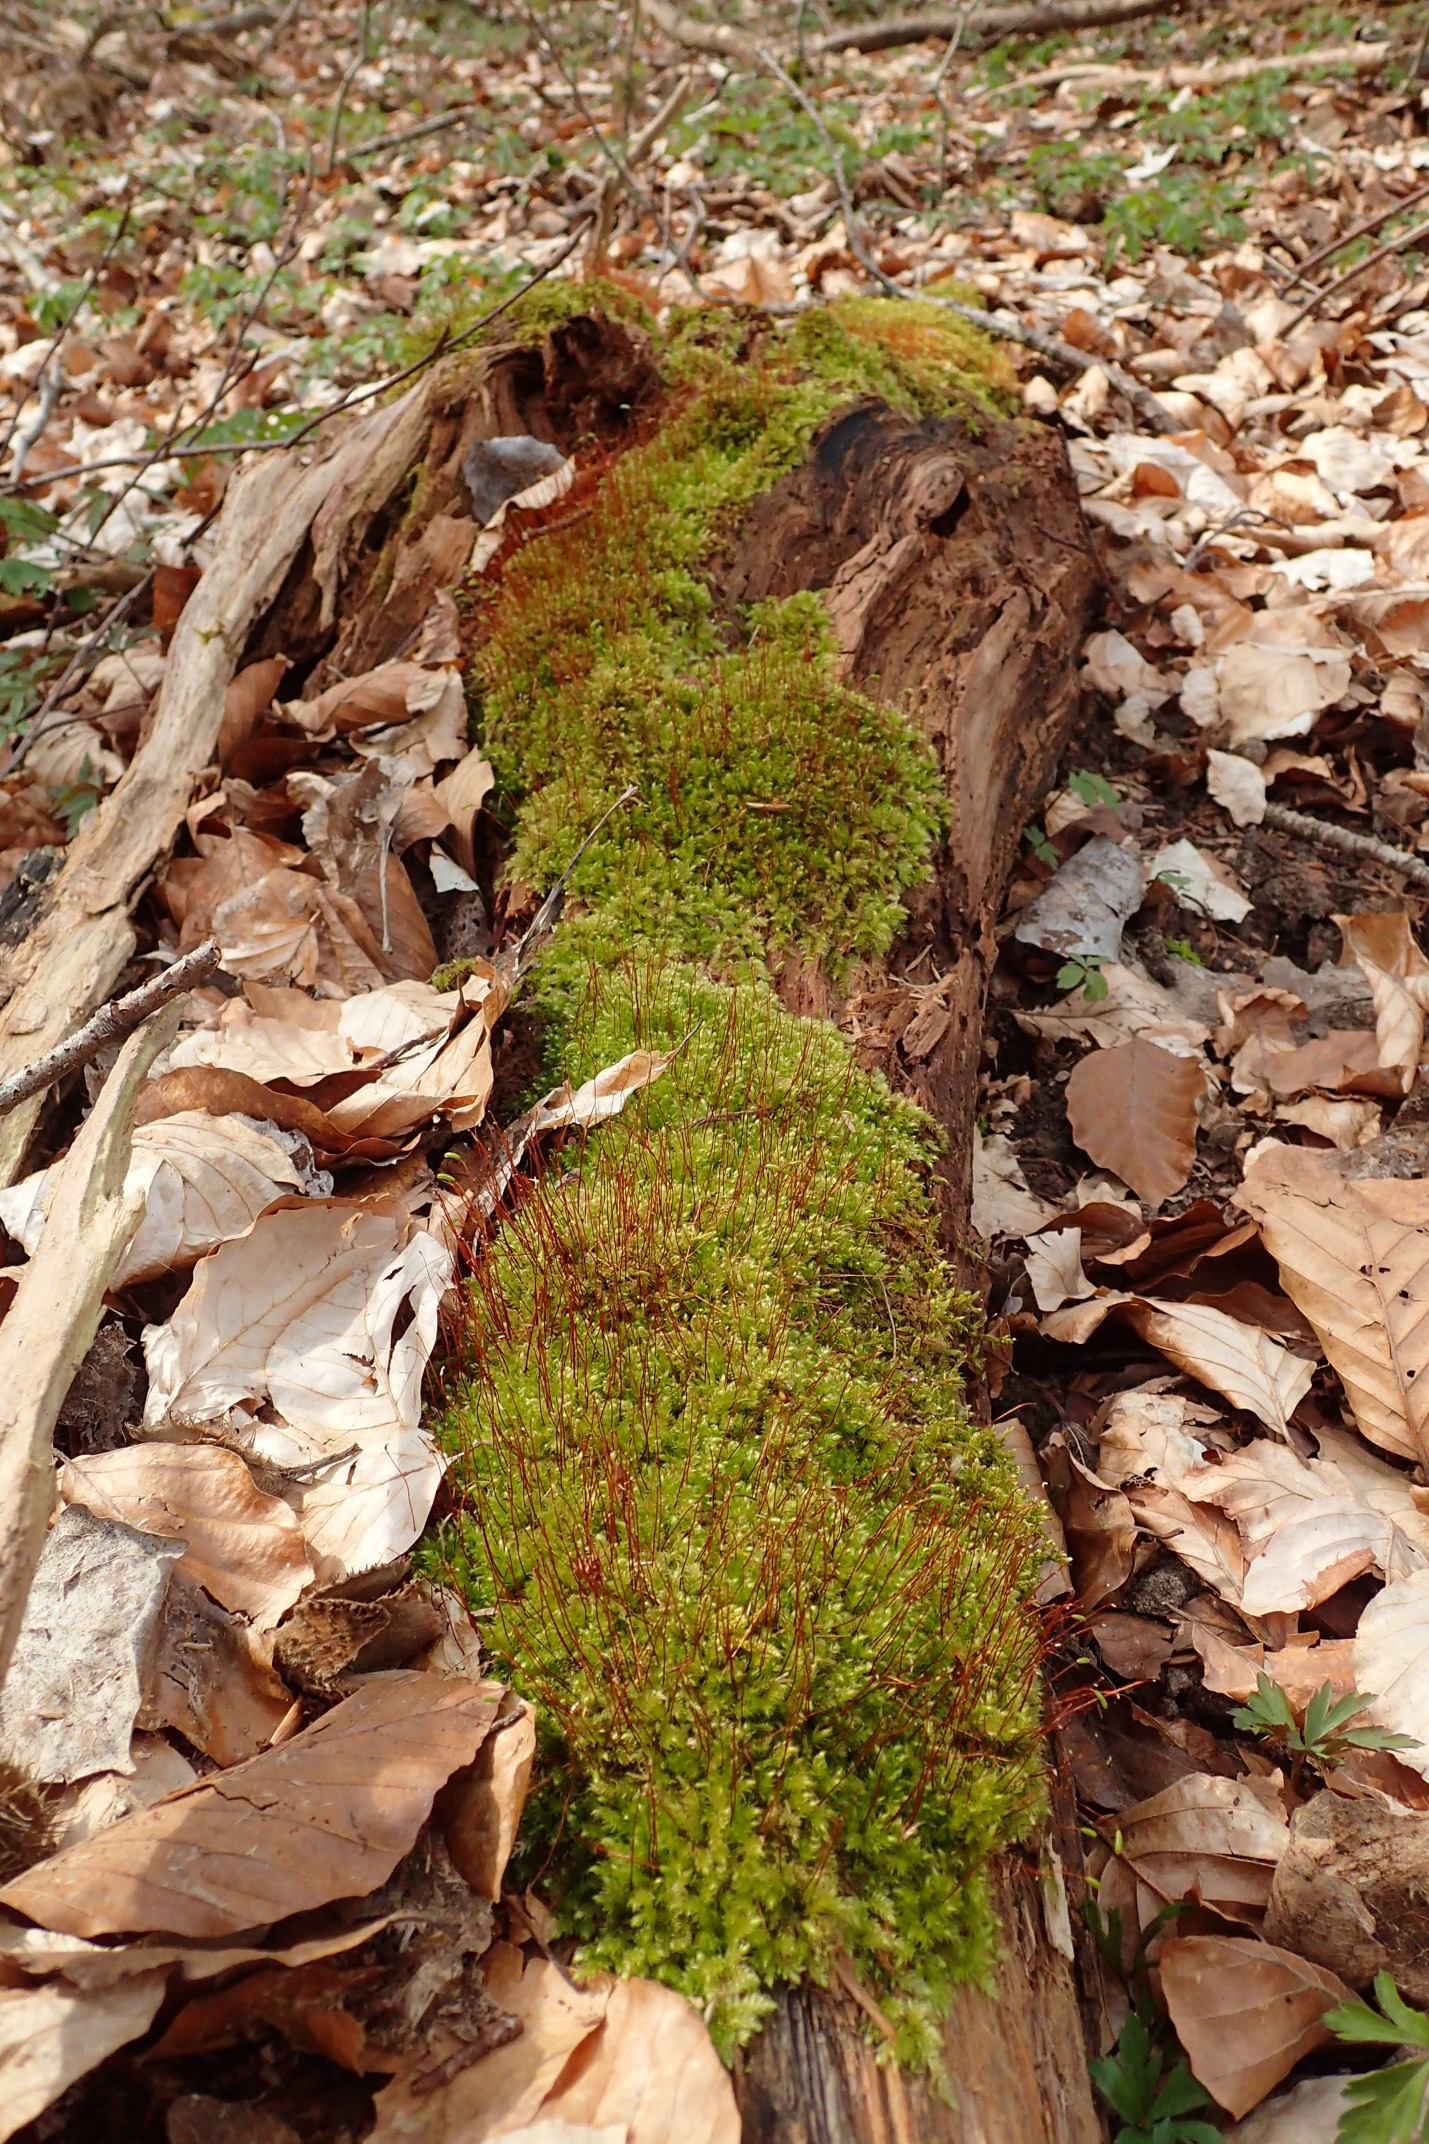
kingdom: Plantae
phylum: Bryophyta
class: Bryopsida
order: Hypnales
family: Plagiotheciaceae
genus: Herzogiella
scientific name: Herzogiella seligeri
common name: Stub-pølsekapsel
